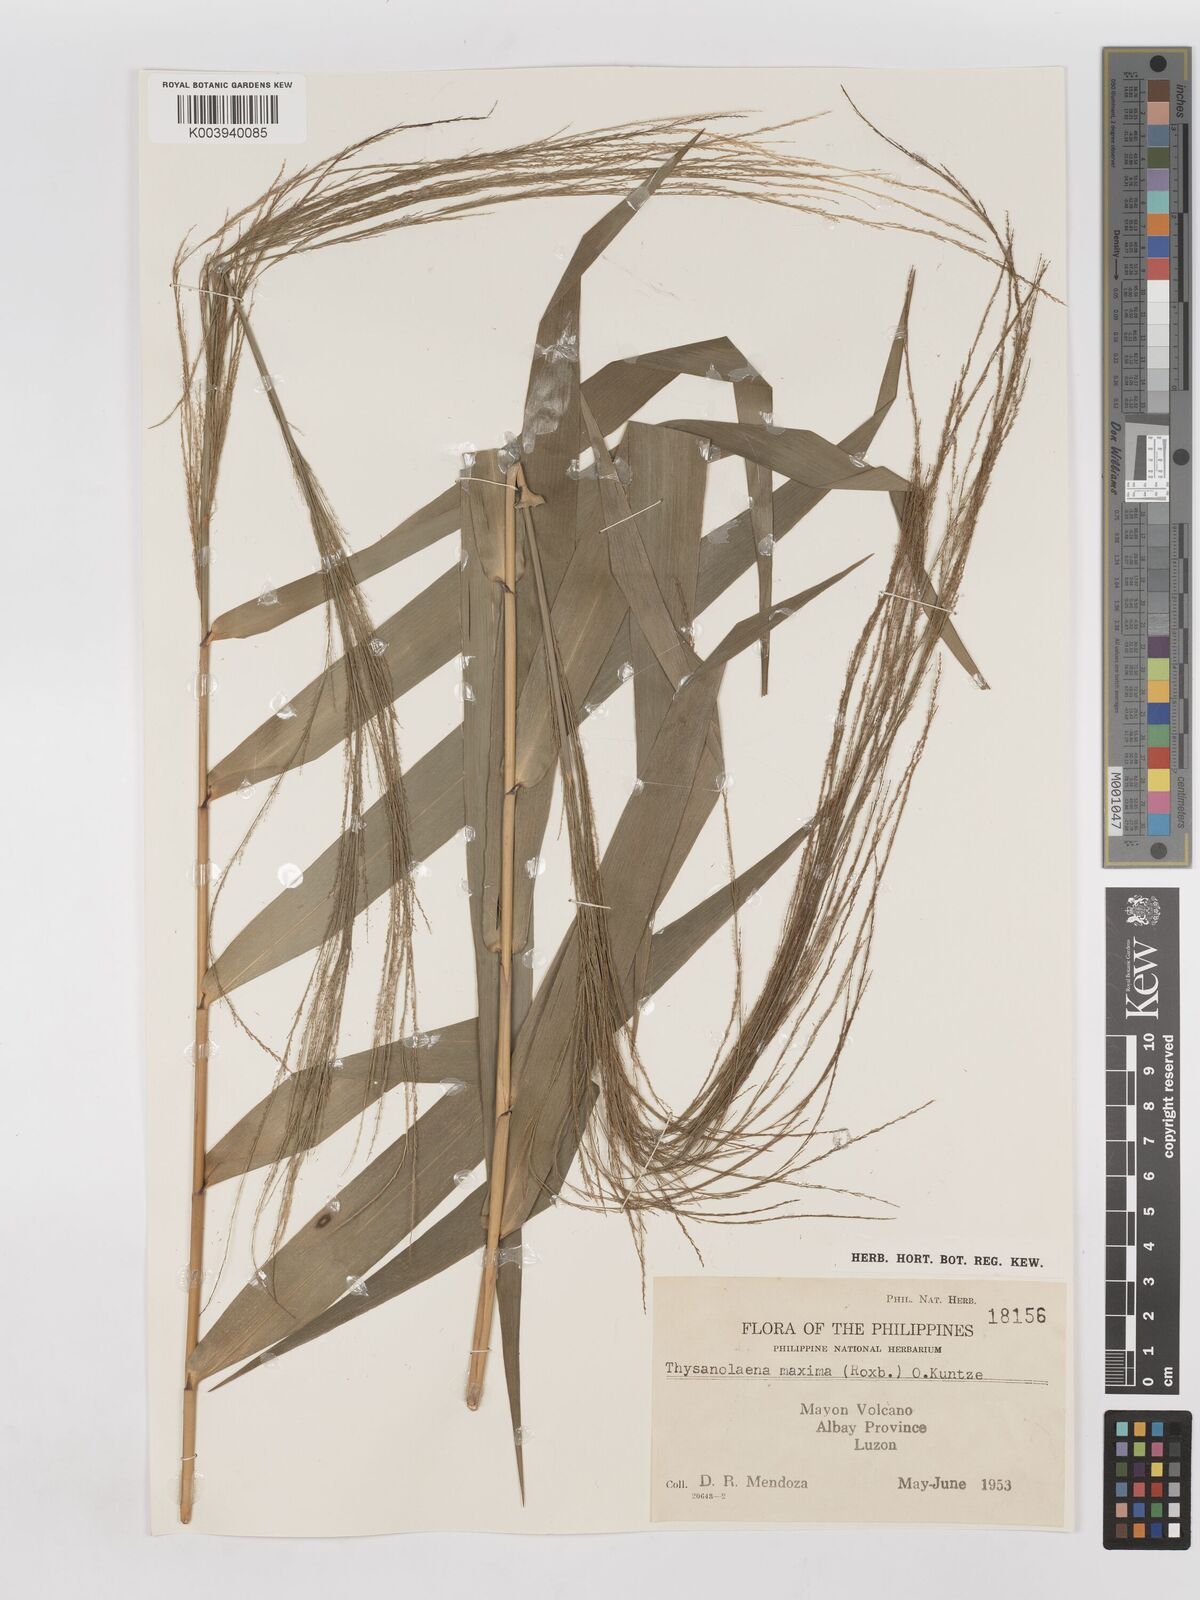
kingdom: Plantae
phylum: Tracheophyta
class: Liliopsida
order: Poales
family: Poaceae
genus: Thysanolaena
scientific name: Thysanolaena latifolia
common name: Tiger grass
